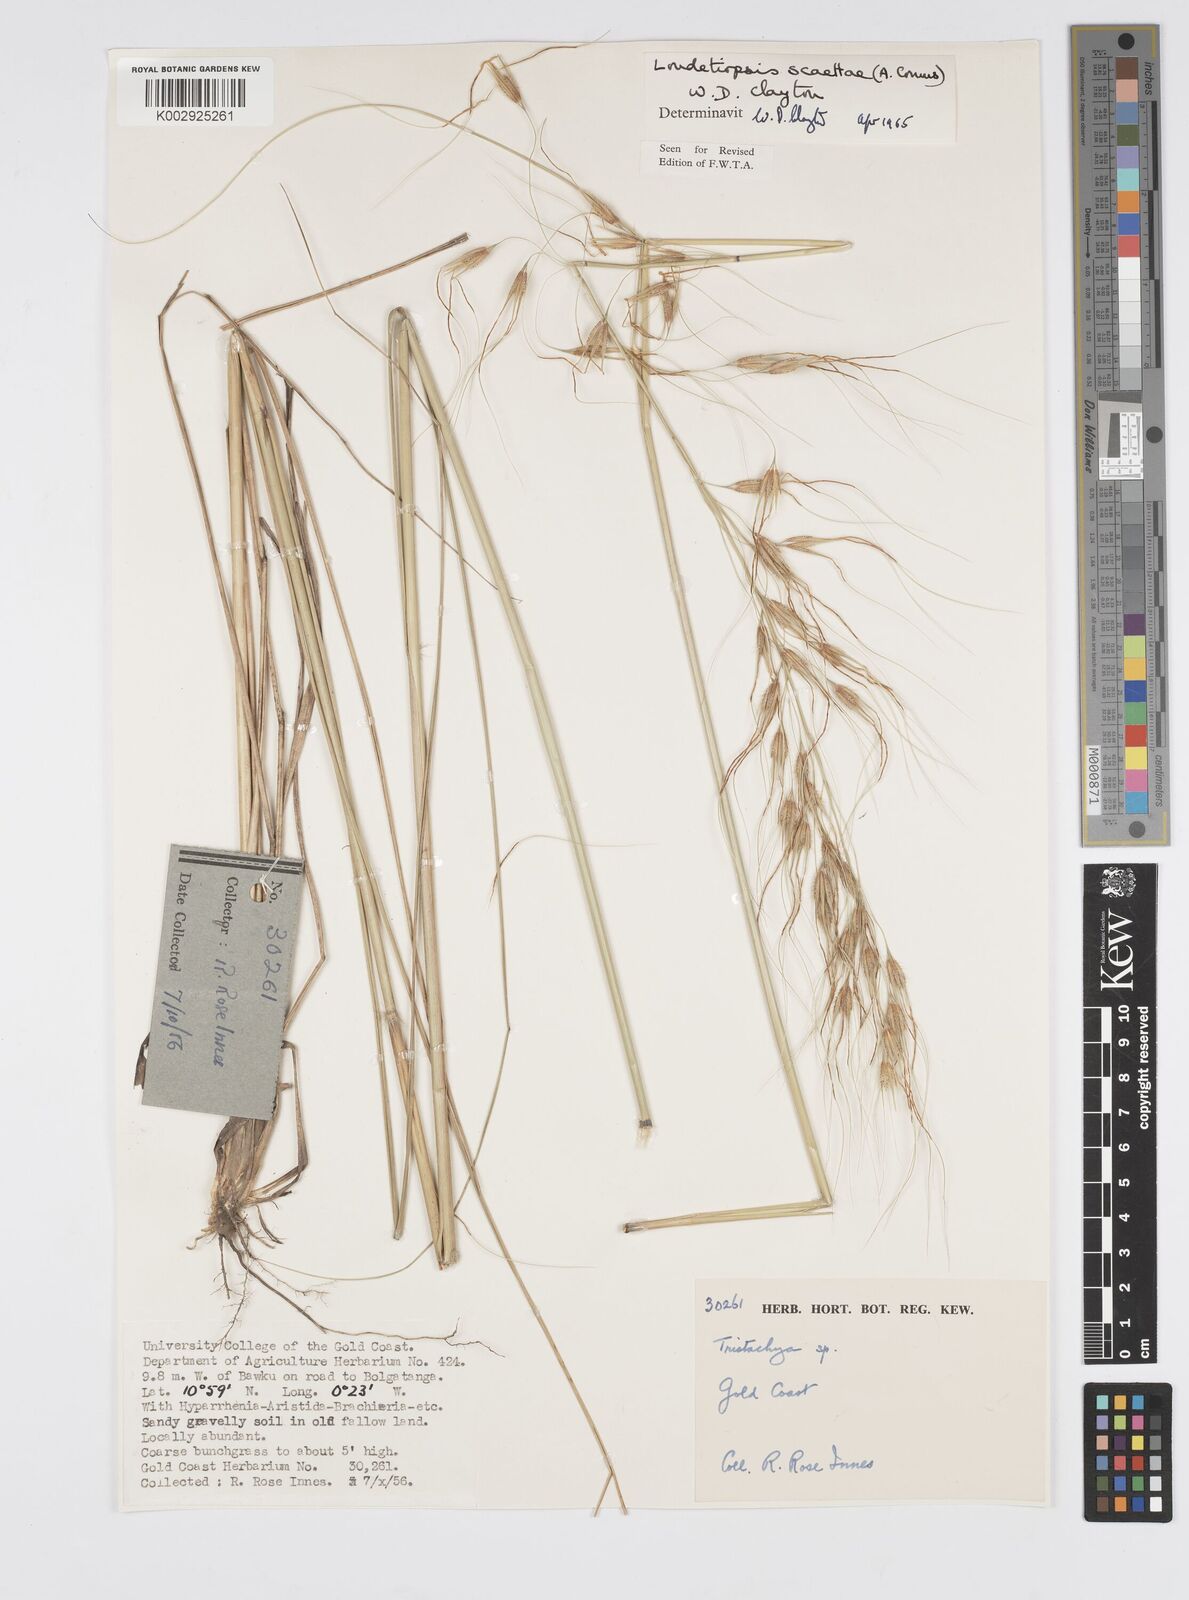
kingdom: Plantae
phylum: Tracheophyta
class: Liliopsida
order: Poales
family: Poaceae
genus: Loudetiopsis
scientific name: Loudetiopsis scaettae
